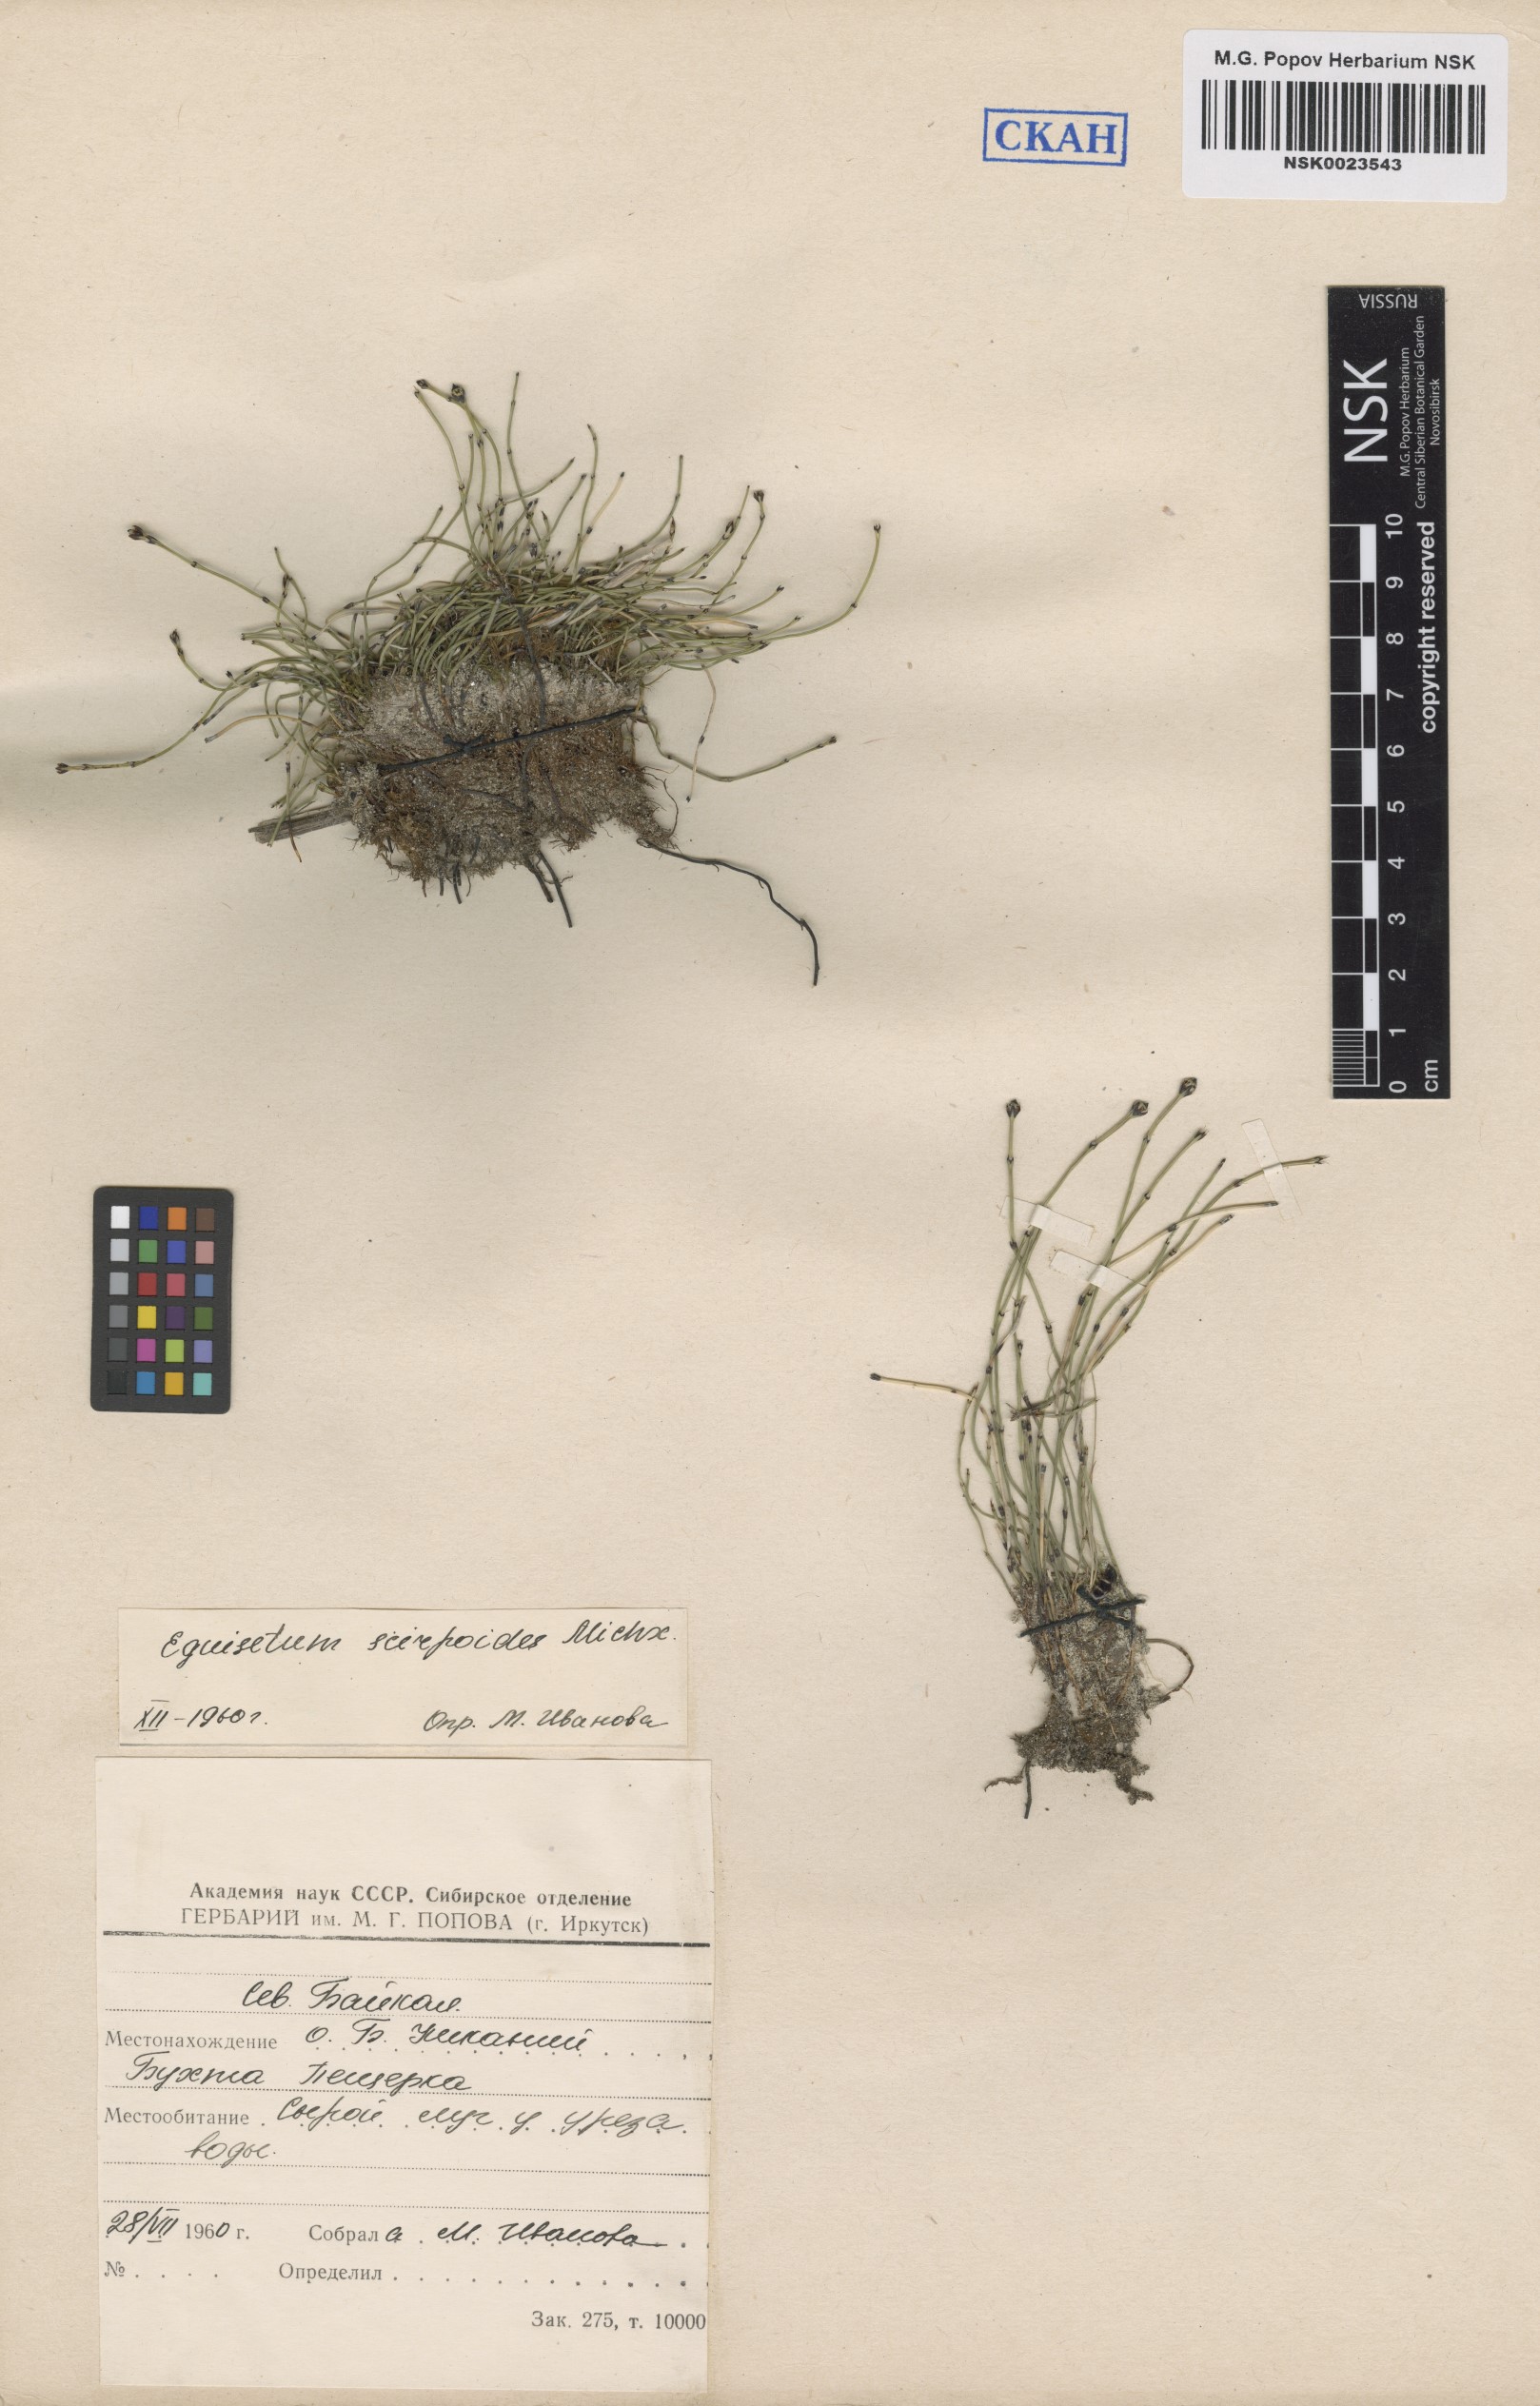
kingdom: Plantae
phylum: Tracheophyta
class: Polypodiopsida
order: Equisetales
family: Equisetaceae
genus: Equisetum
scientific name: Equisetum scirpoides
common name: Delicate horsetail
